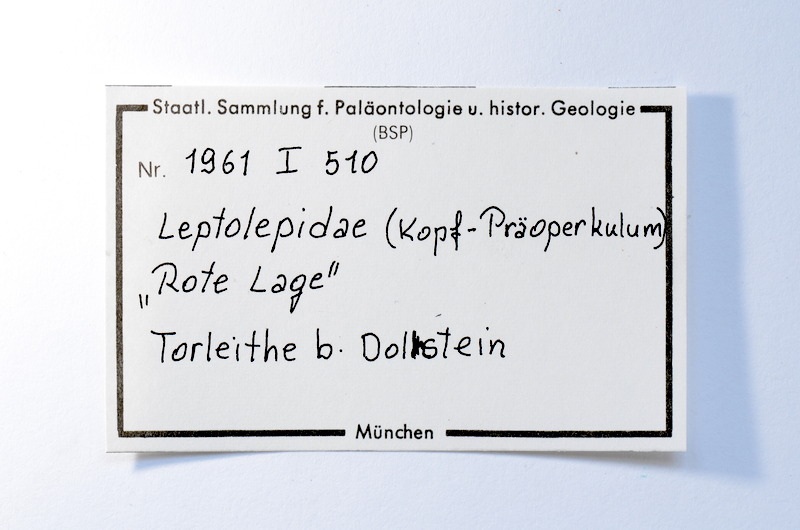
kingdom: Animalia
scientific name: Animalia
